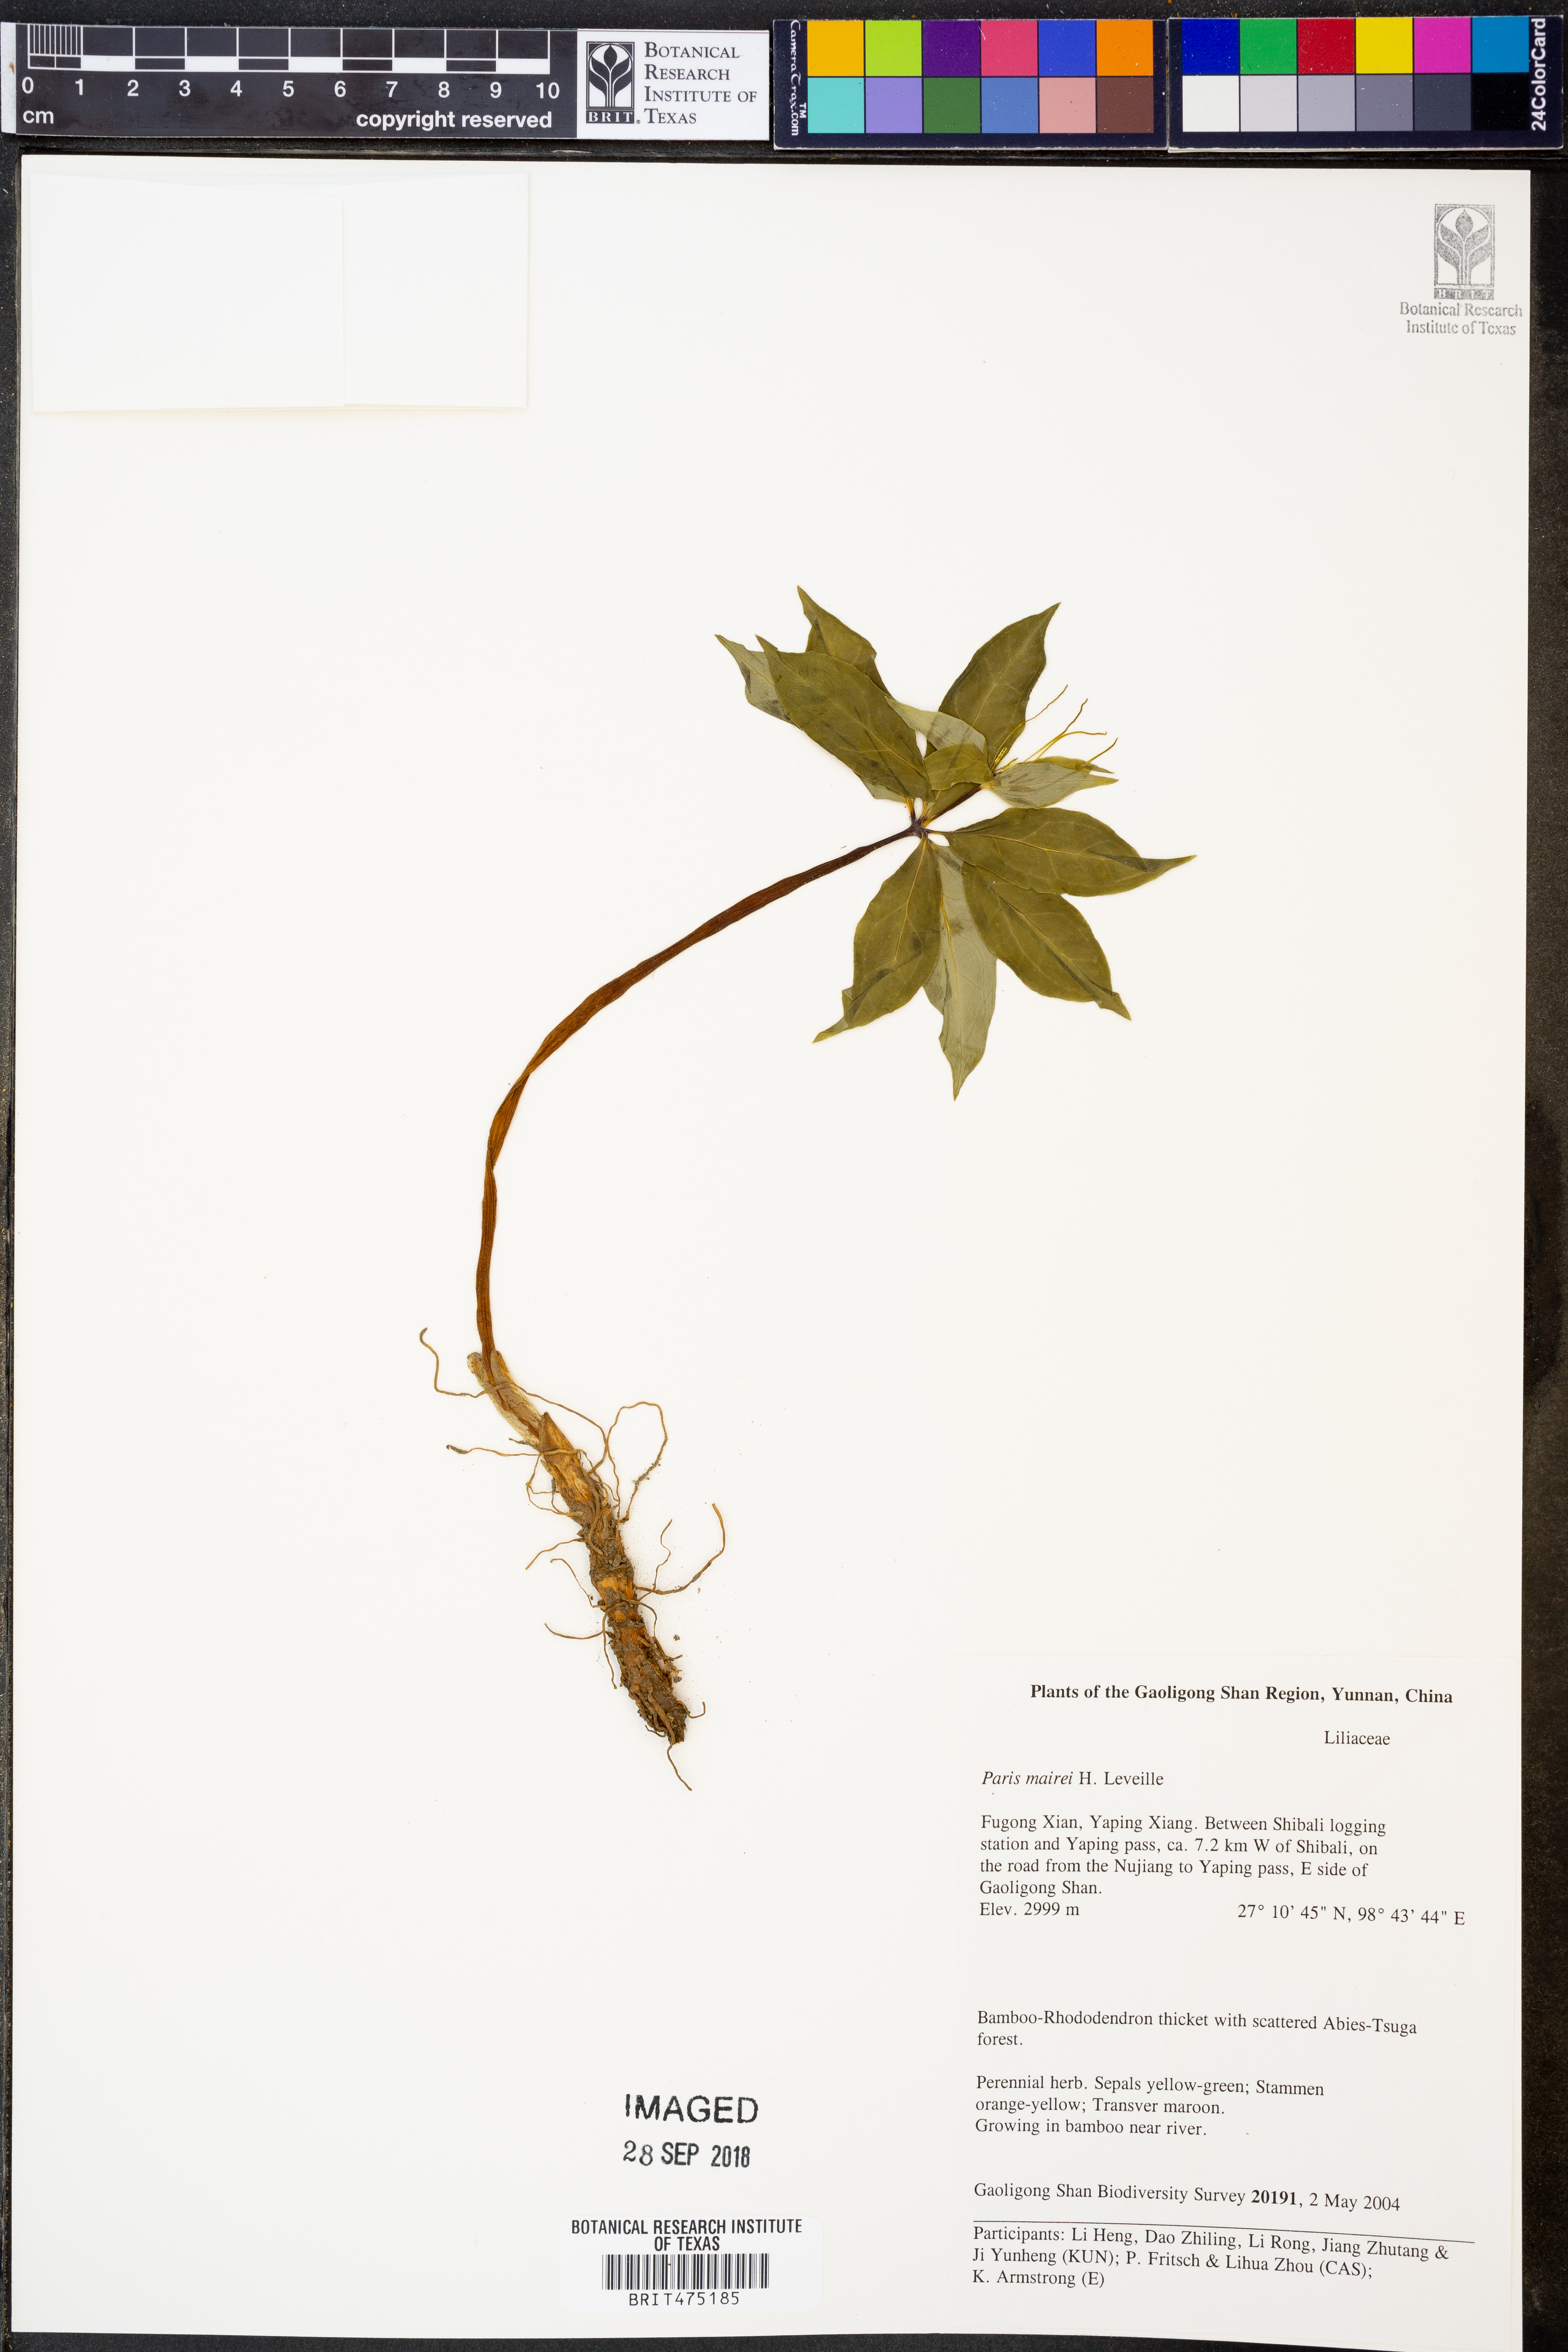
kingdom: Plantae
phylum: Tracheophyta
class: Liliopsida
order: Liliales
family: Melanthiaceae
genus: Paris
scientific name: Paris mairei
